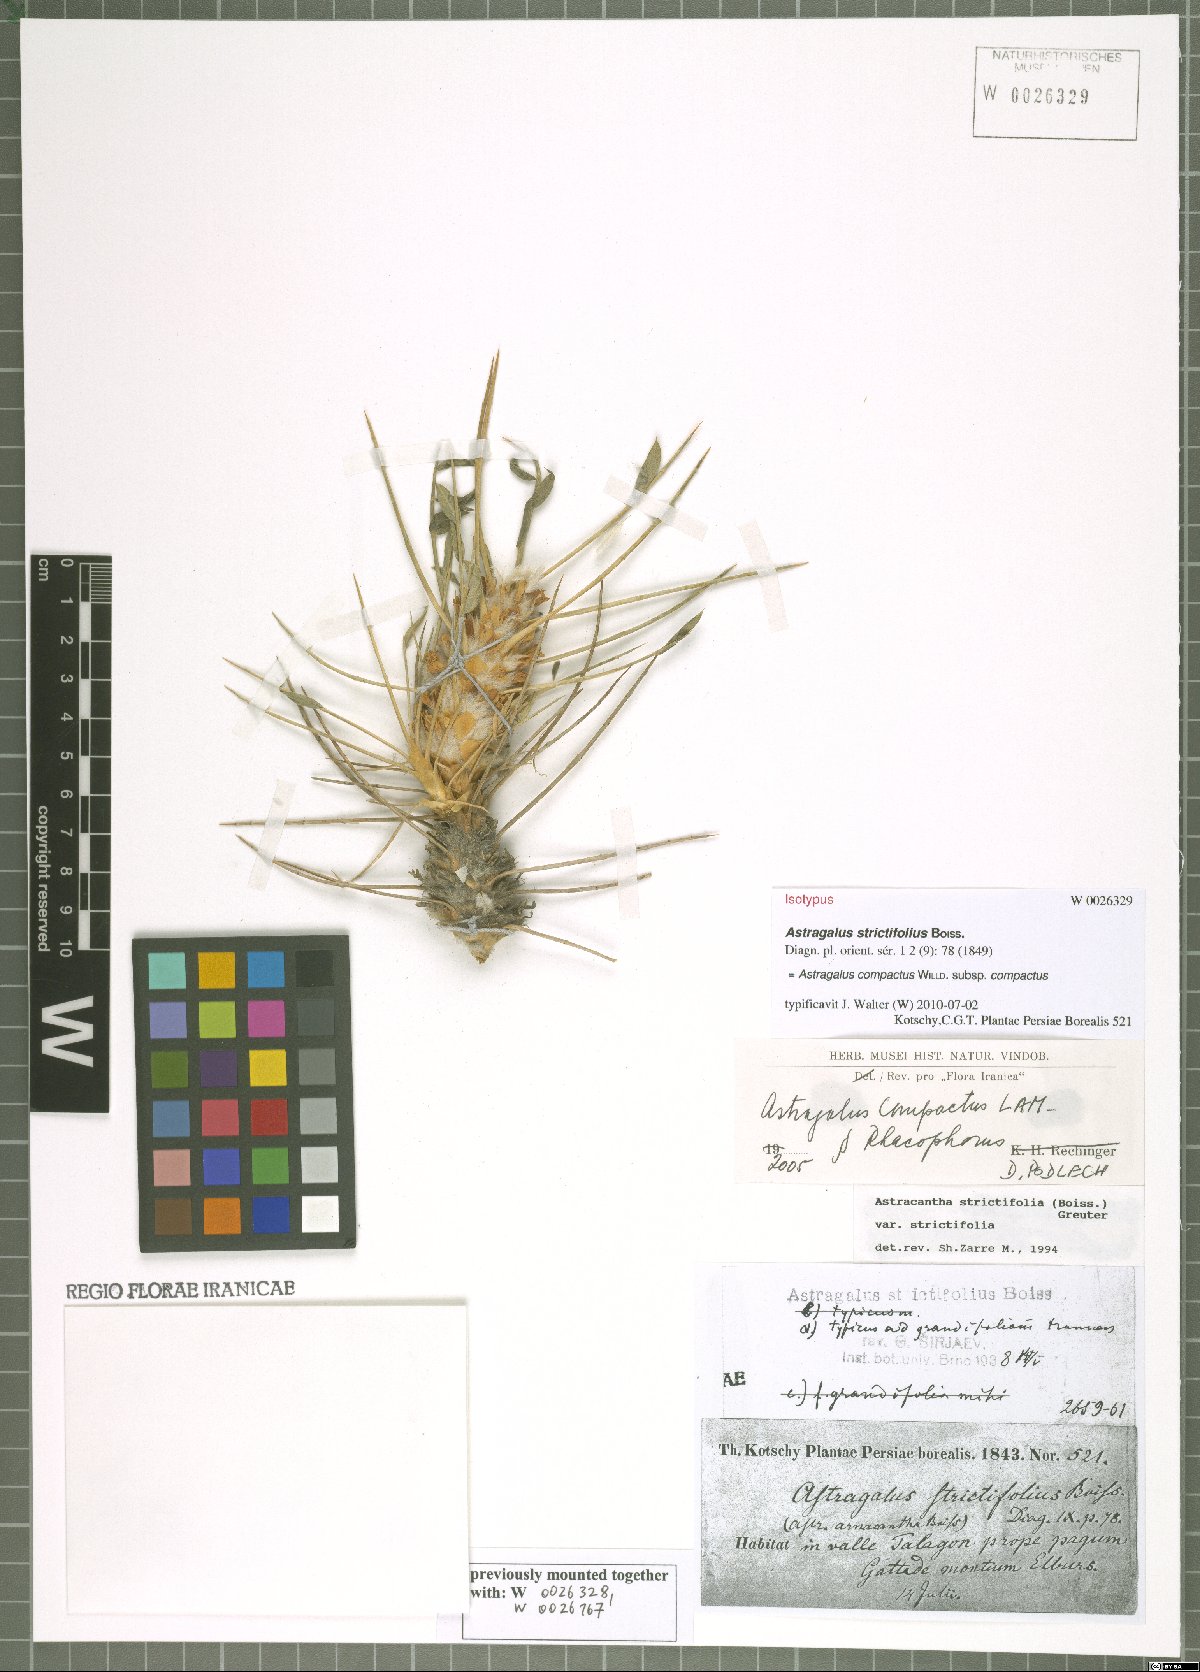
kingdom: Plantae
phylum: Tracheophyta
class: Magnoliopsida
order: Fabales
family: Fabaceae
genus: Astragalus
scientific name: Astragalus compactus
